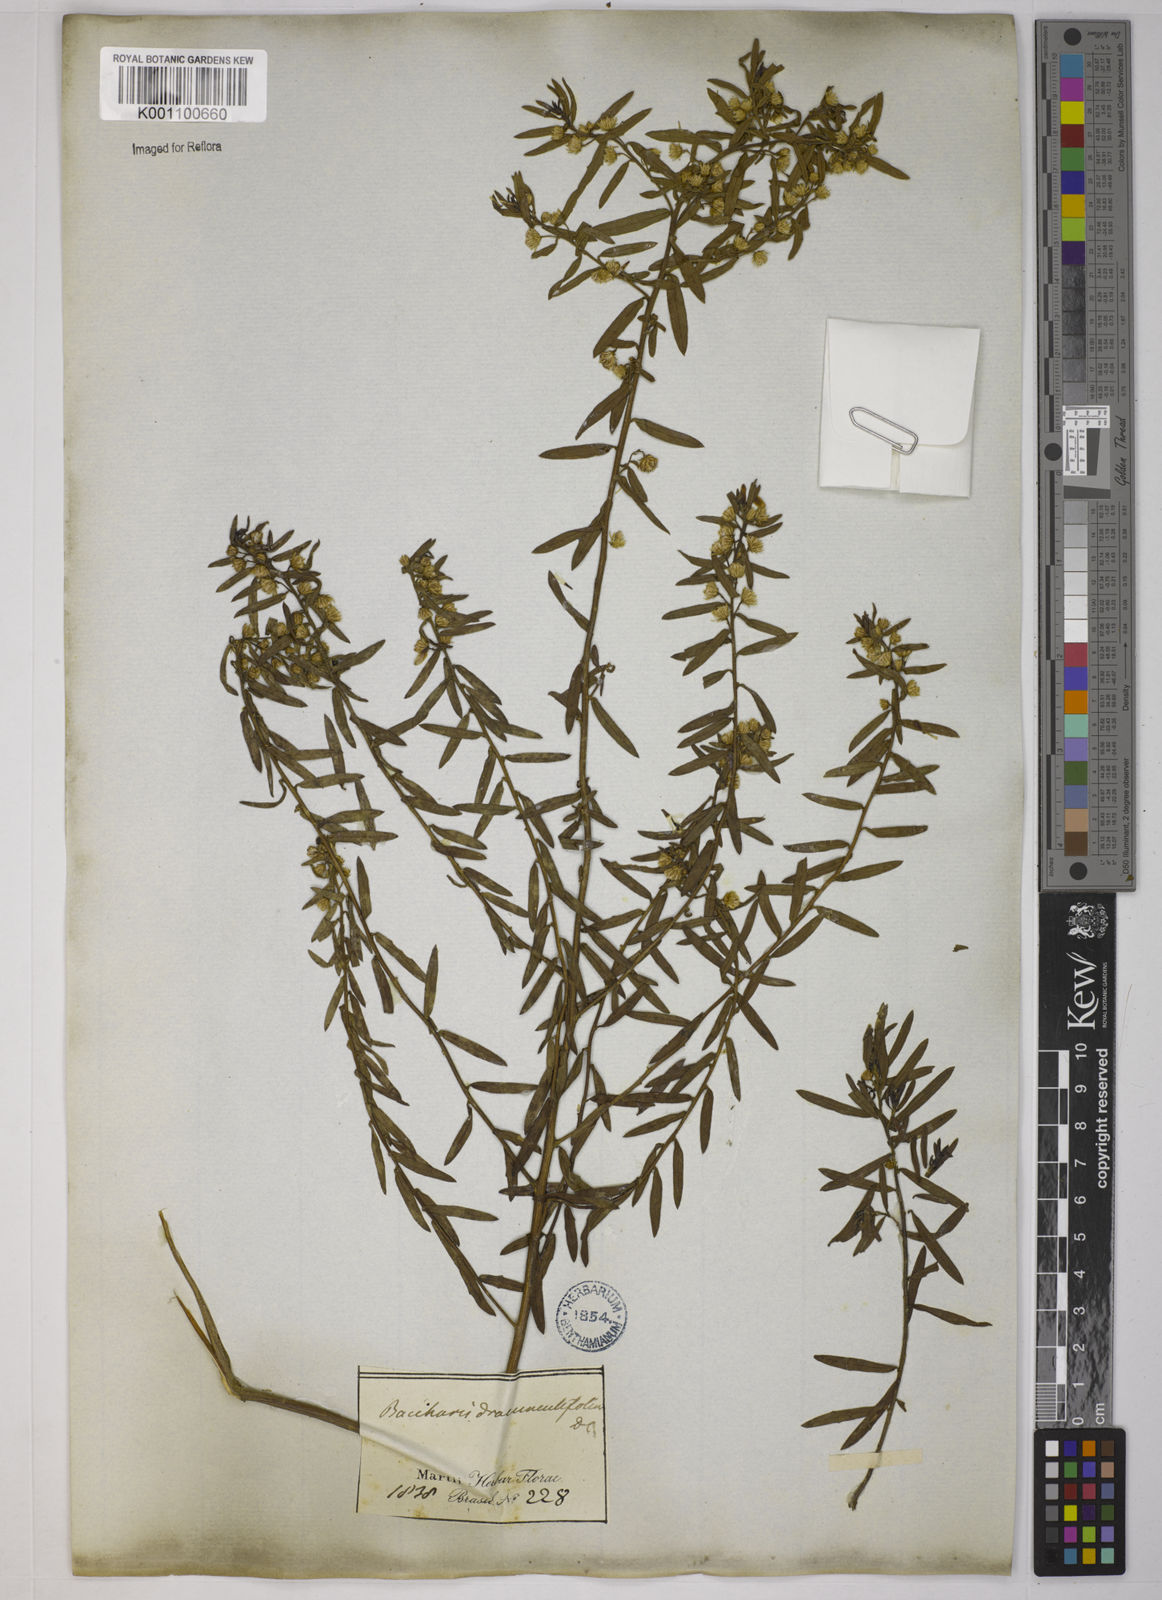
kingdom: Plantae
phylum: Tracheophyta
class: Magnoliopsida
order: Asterales
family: Asteraceae
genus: Baccharis
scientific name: Baccharis dracunculifolia
